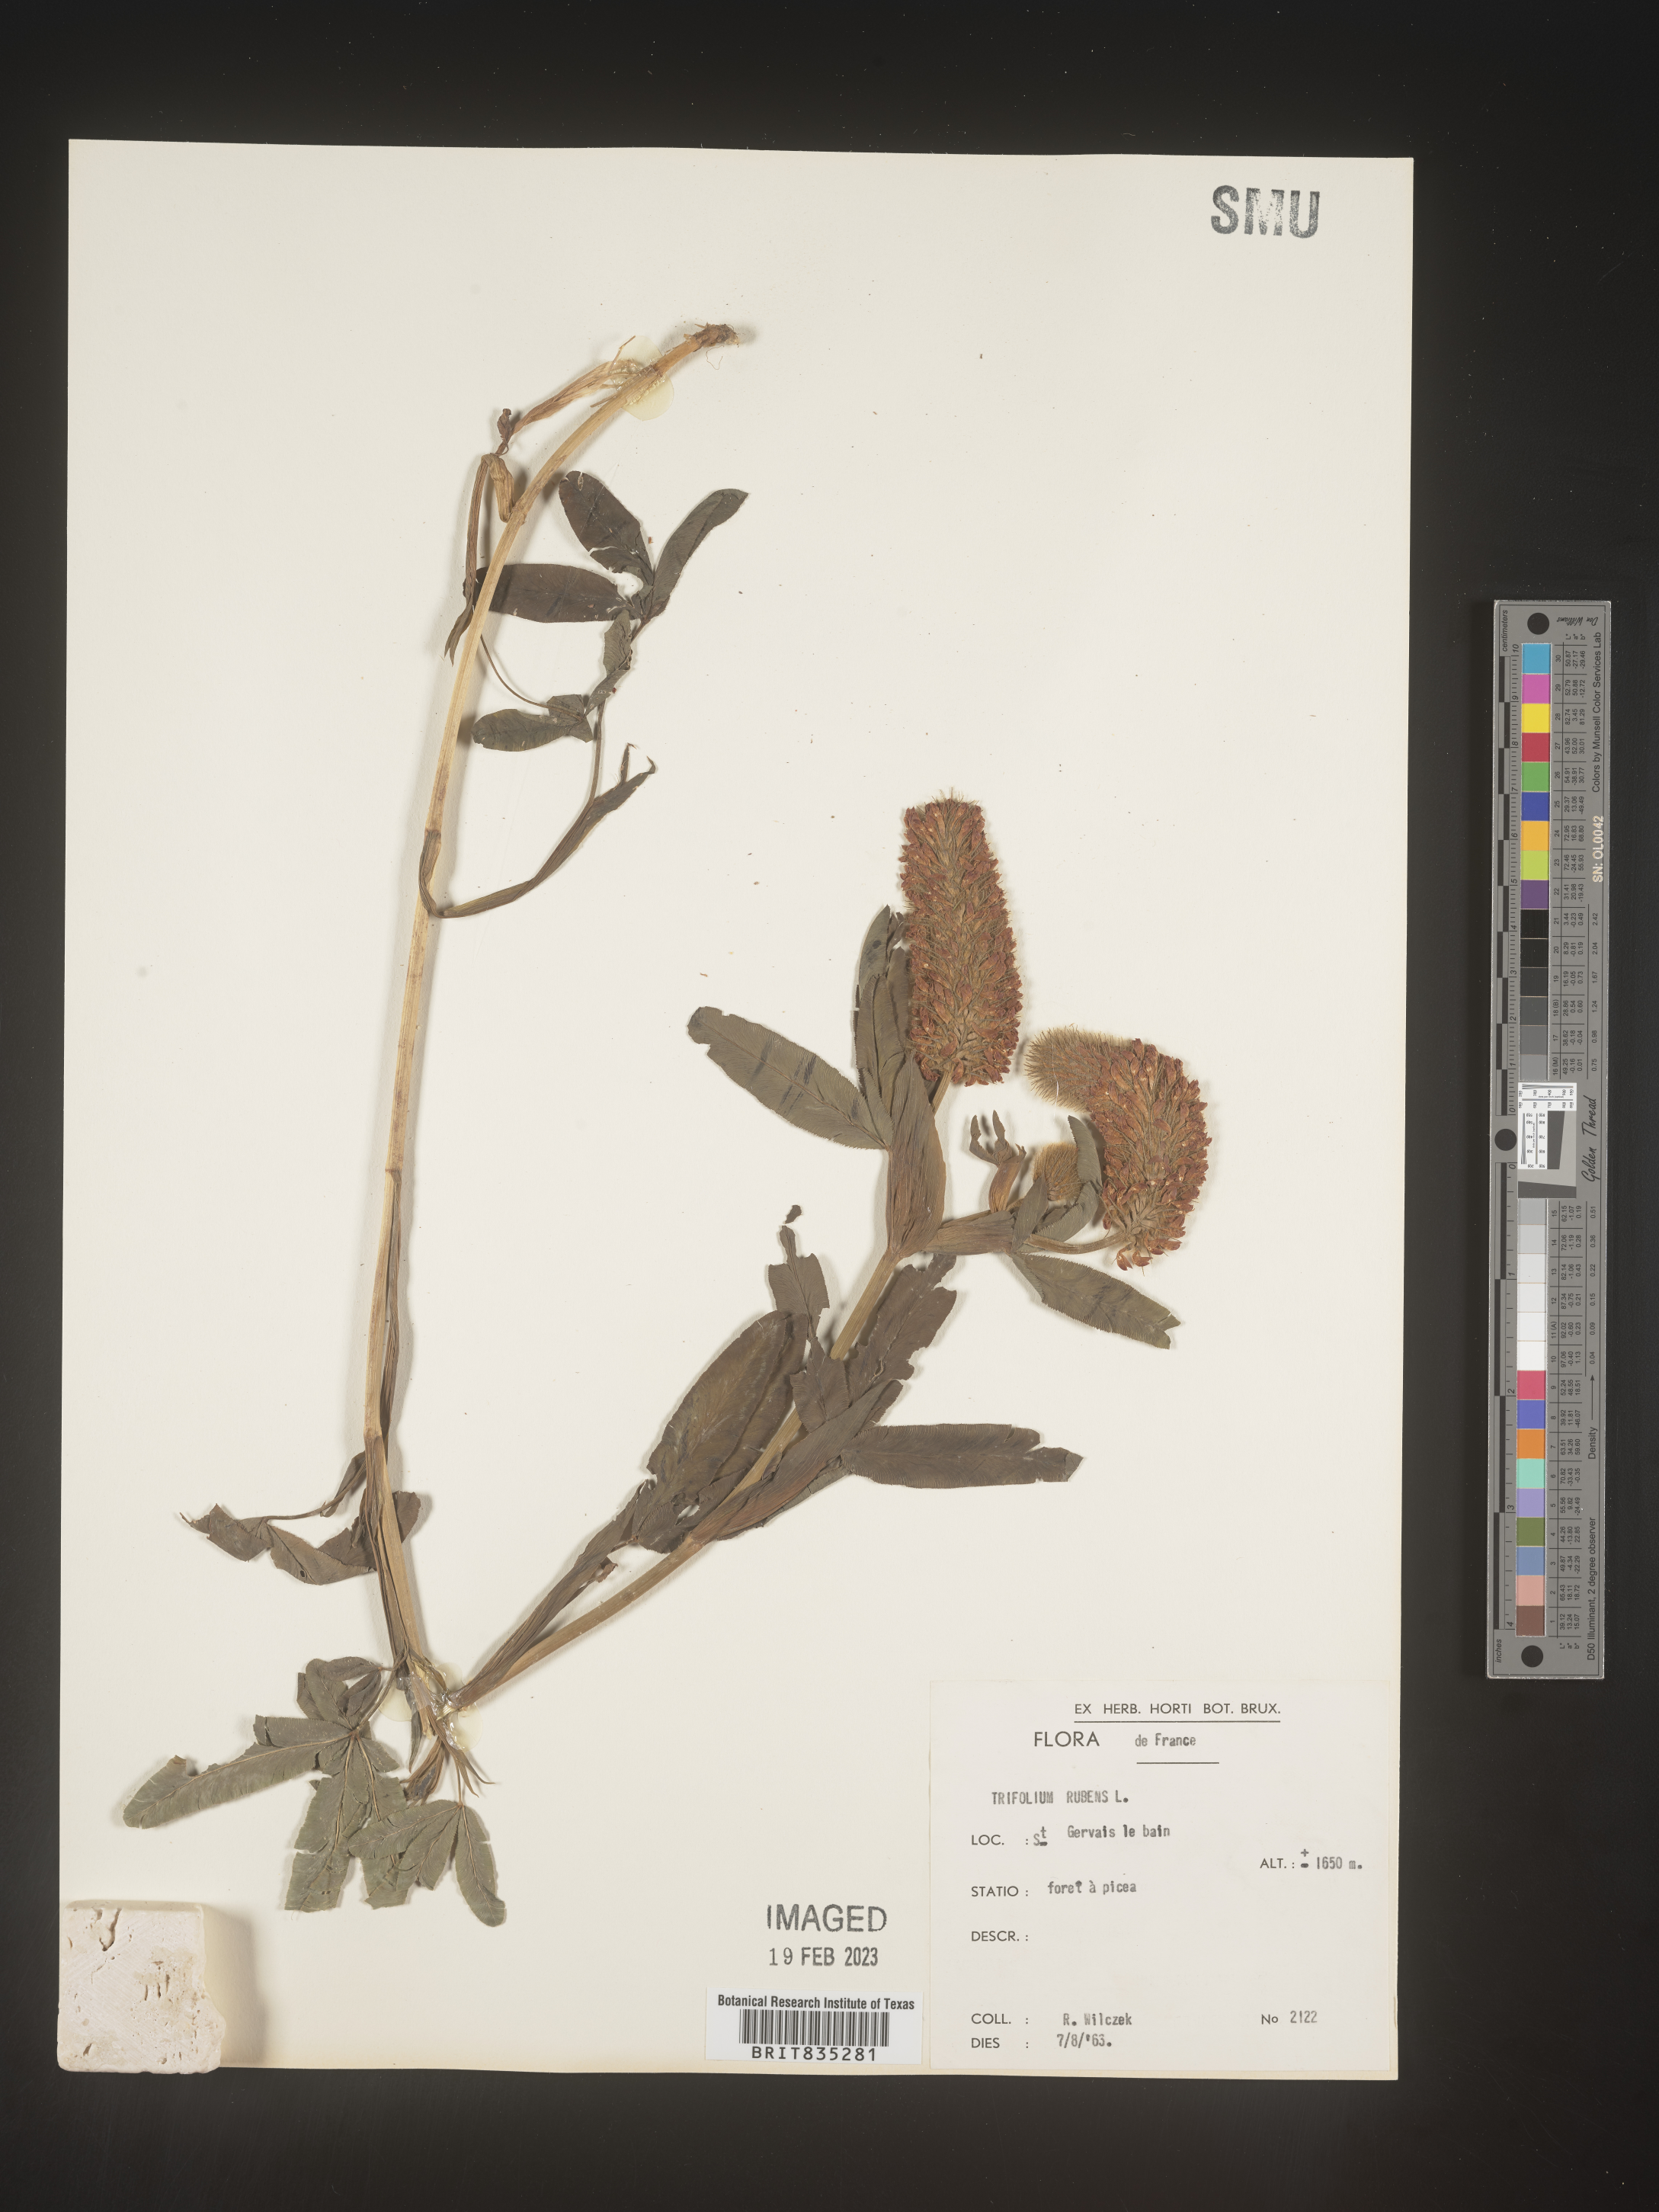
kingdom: Plantae
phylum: Tracheophyta
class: Magnoliopsida
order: Fabales
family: Fabaceae
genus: Trifolium
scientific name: Trifolium
